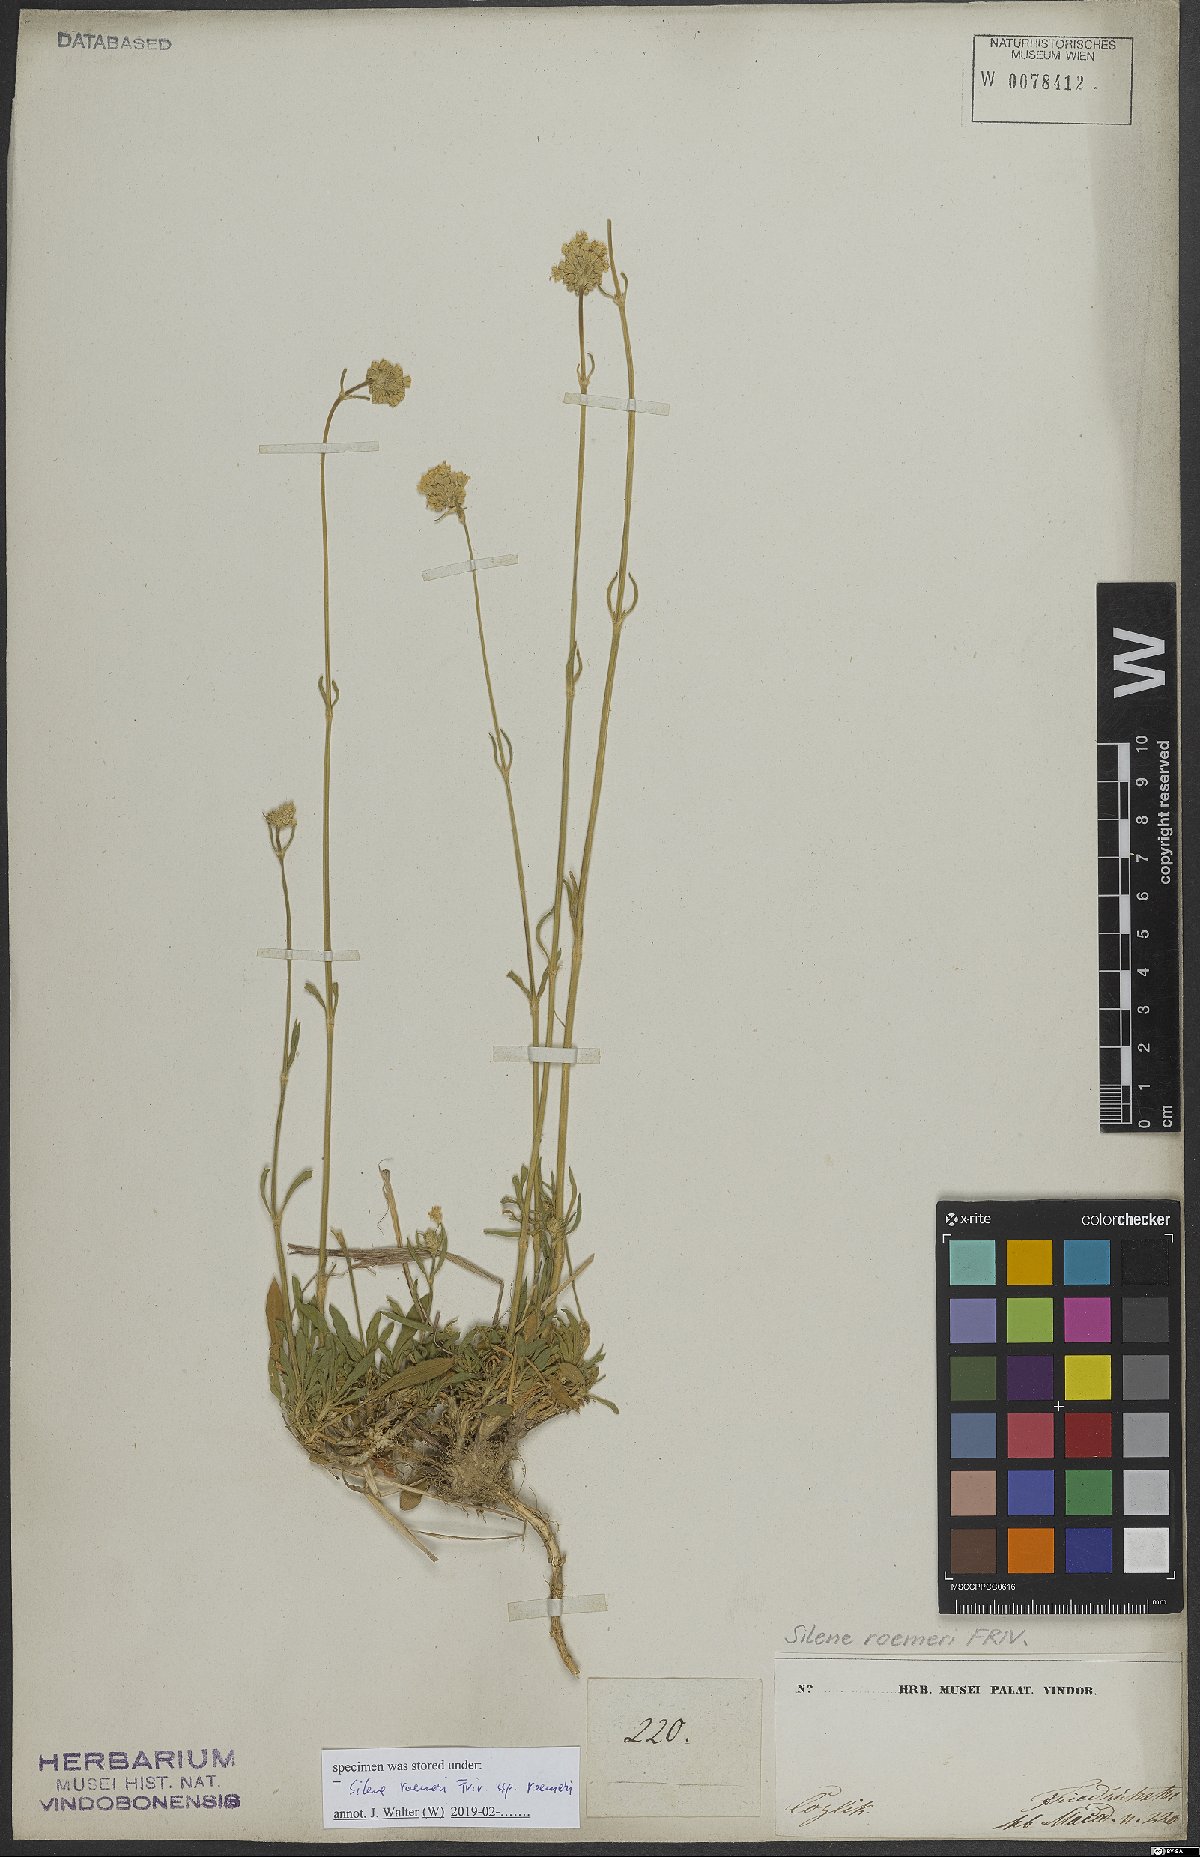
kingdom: Plantae
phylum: Tracheophyta
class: Magnoliopsida
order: Caryophyllales
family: Caryophyllaceae
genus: Silene
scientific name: Silene roemeri
